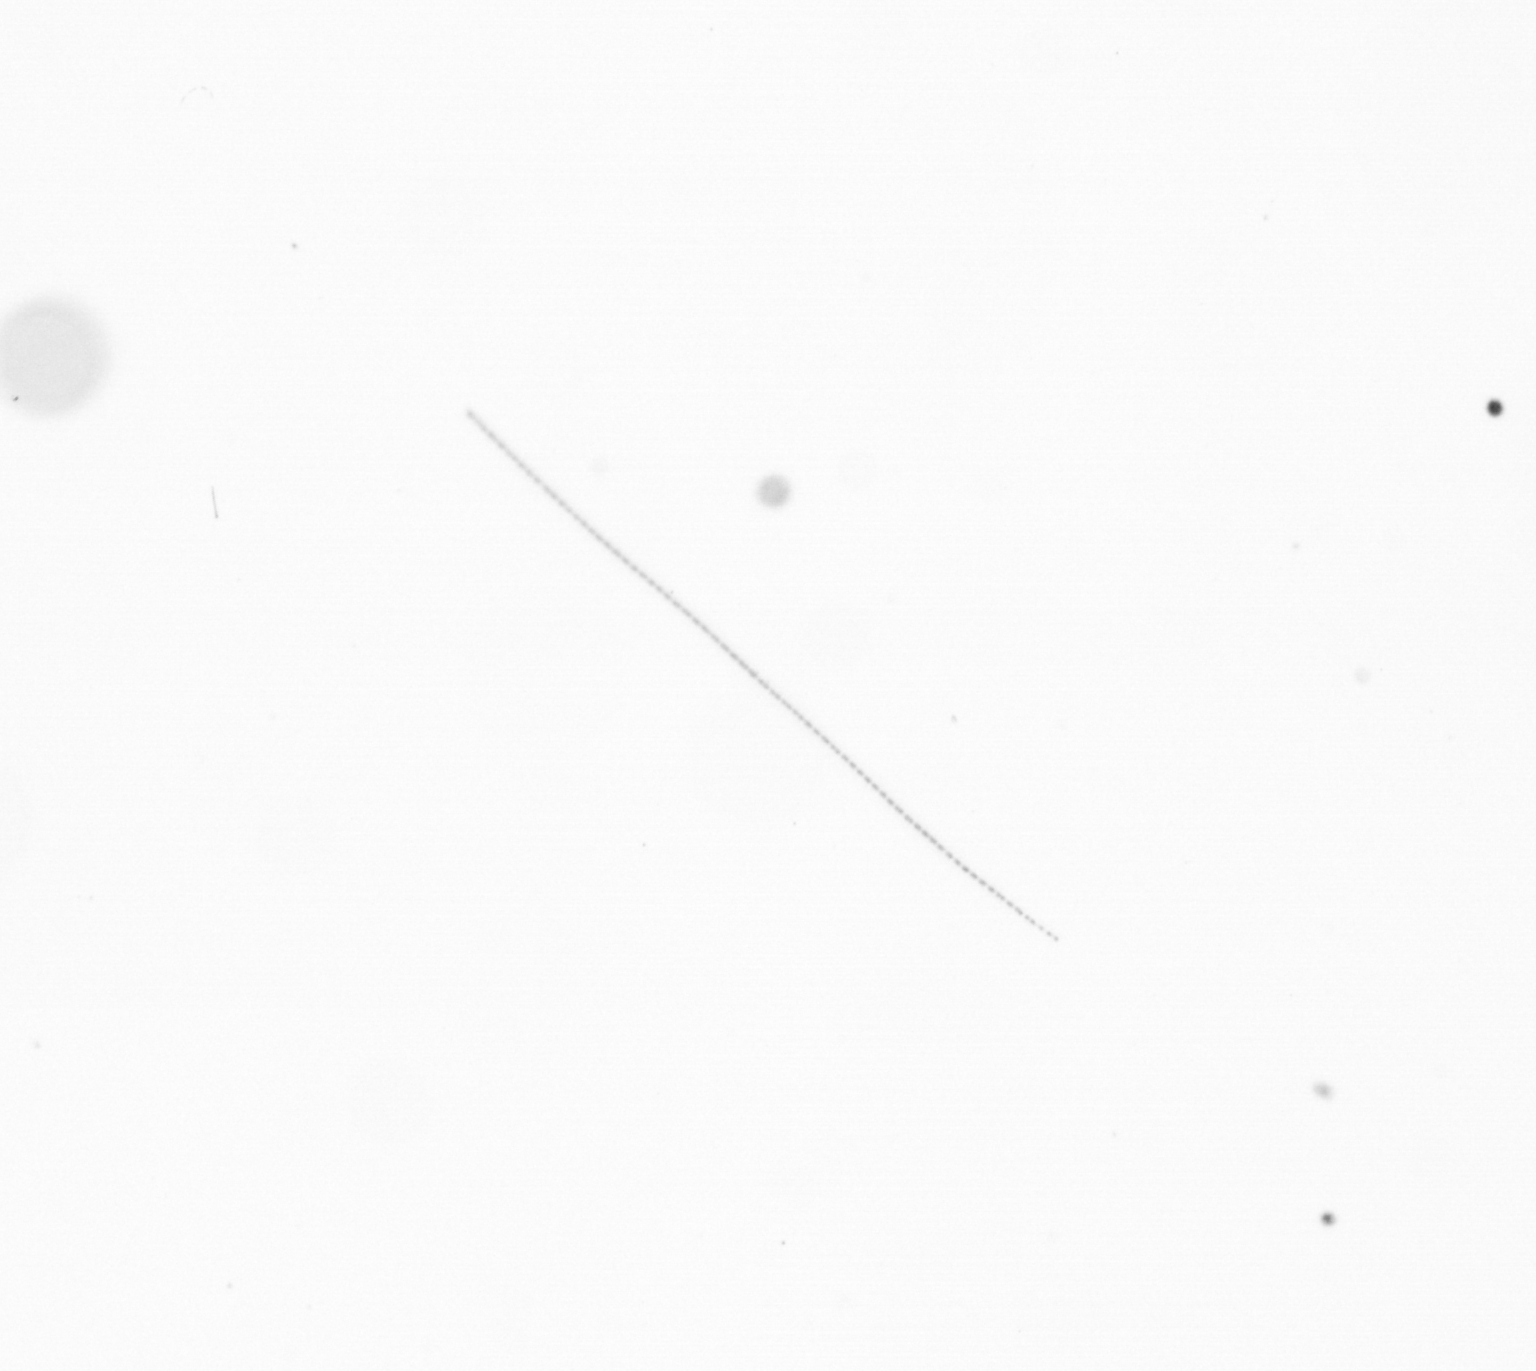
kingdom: Chromista
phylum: Ochrophyta
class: Bacillariophyceae
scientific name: Bacillariophyceae
